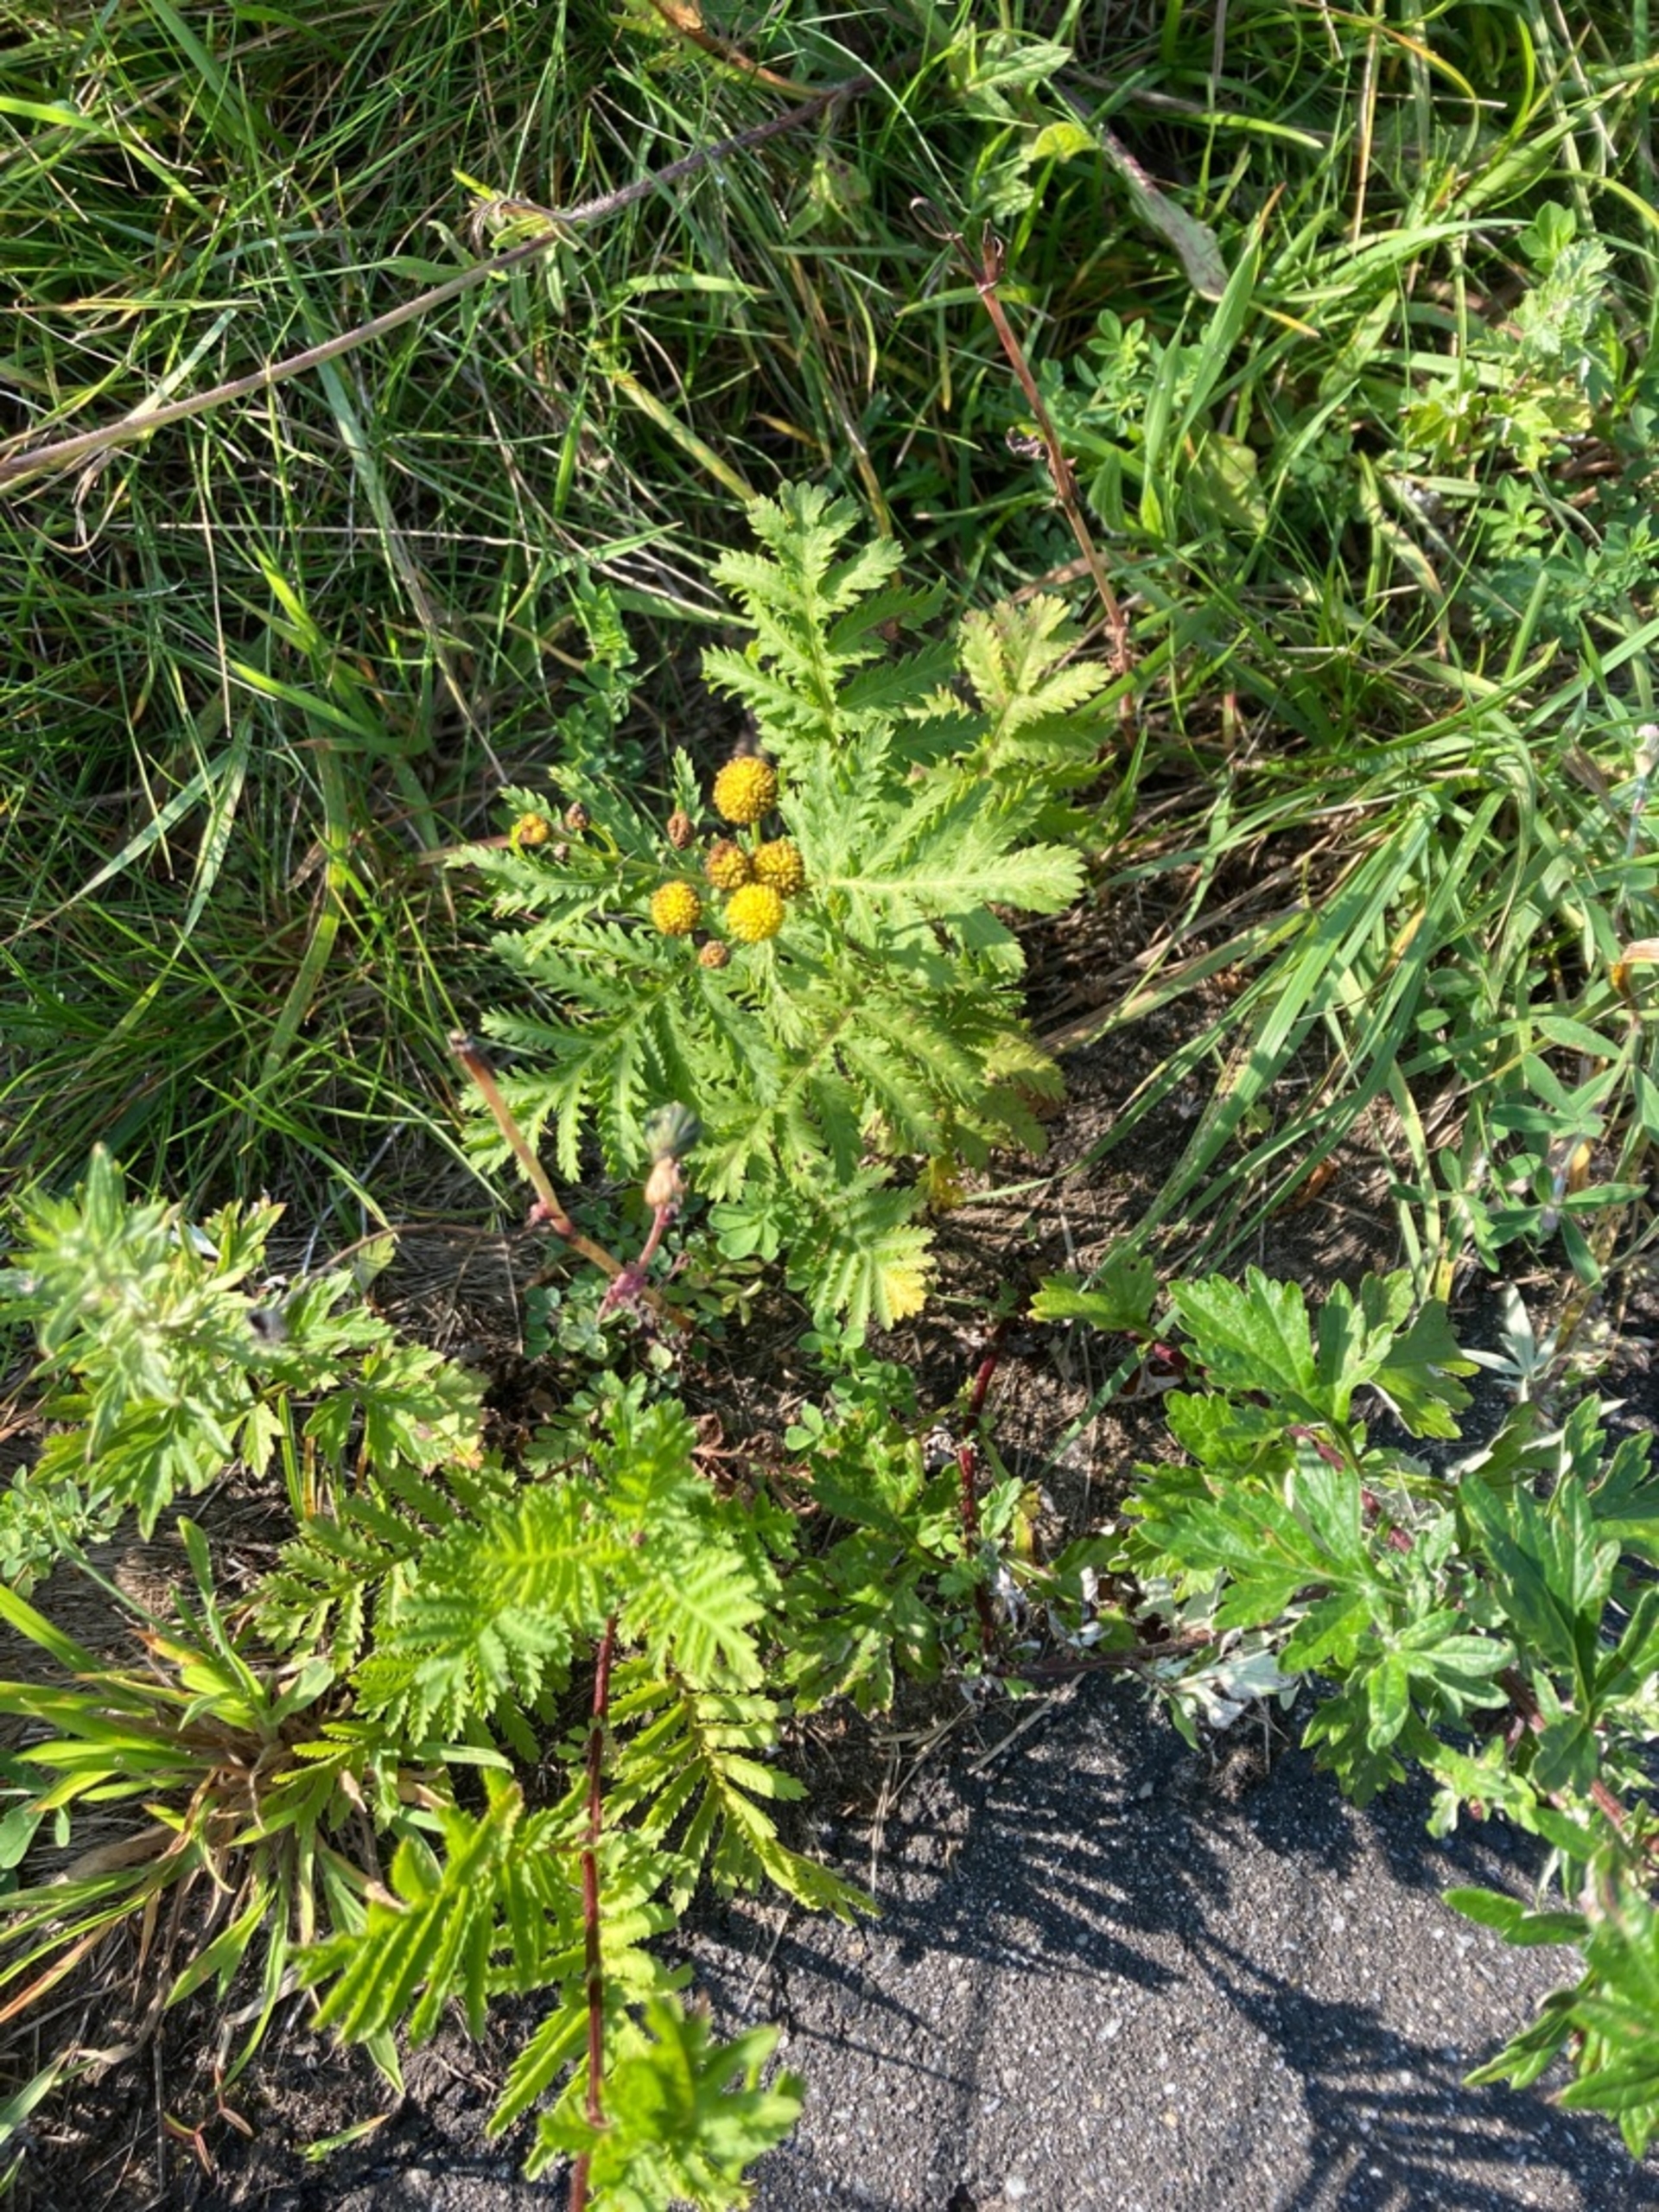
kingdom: Plantae
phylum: Tracheophyta
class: Magnoliopsida
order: Asterales
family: Asteraceae
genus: Tanacetum
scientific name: Tanacetum vulgare
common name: Rejnfan
